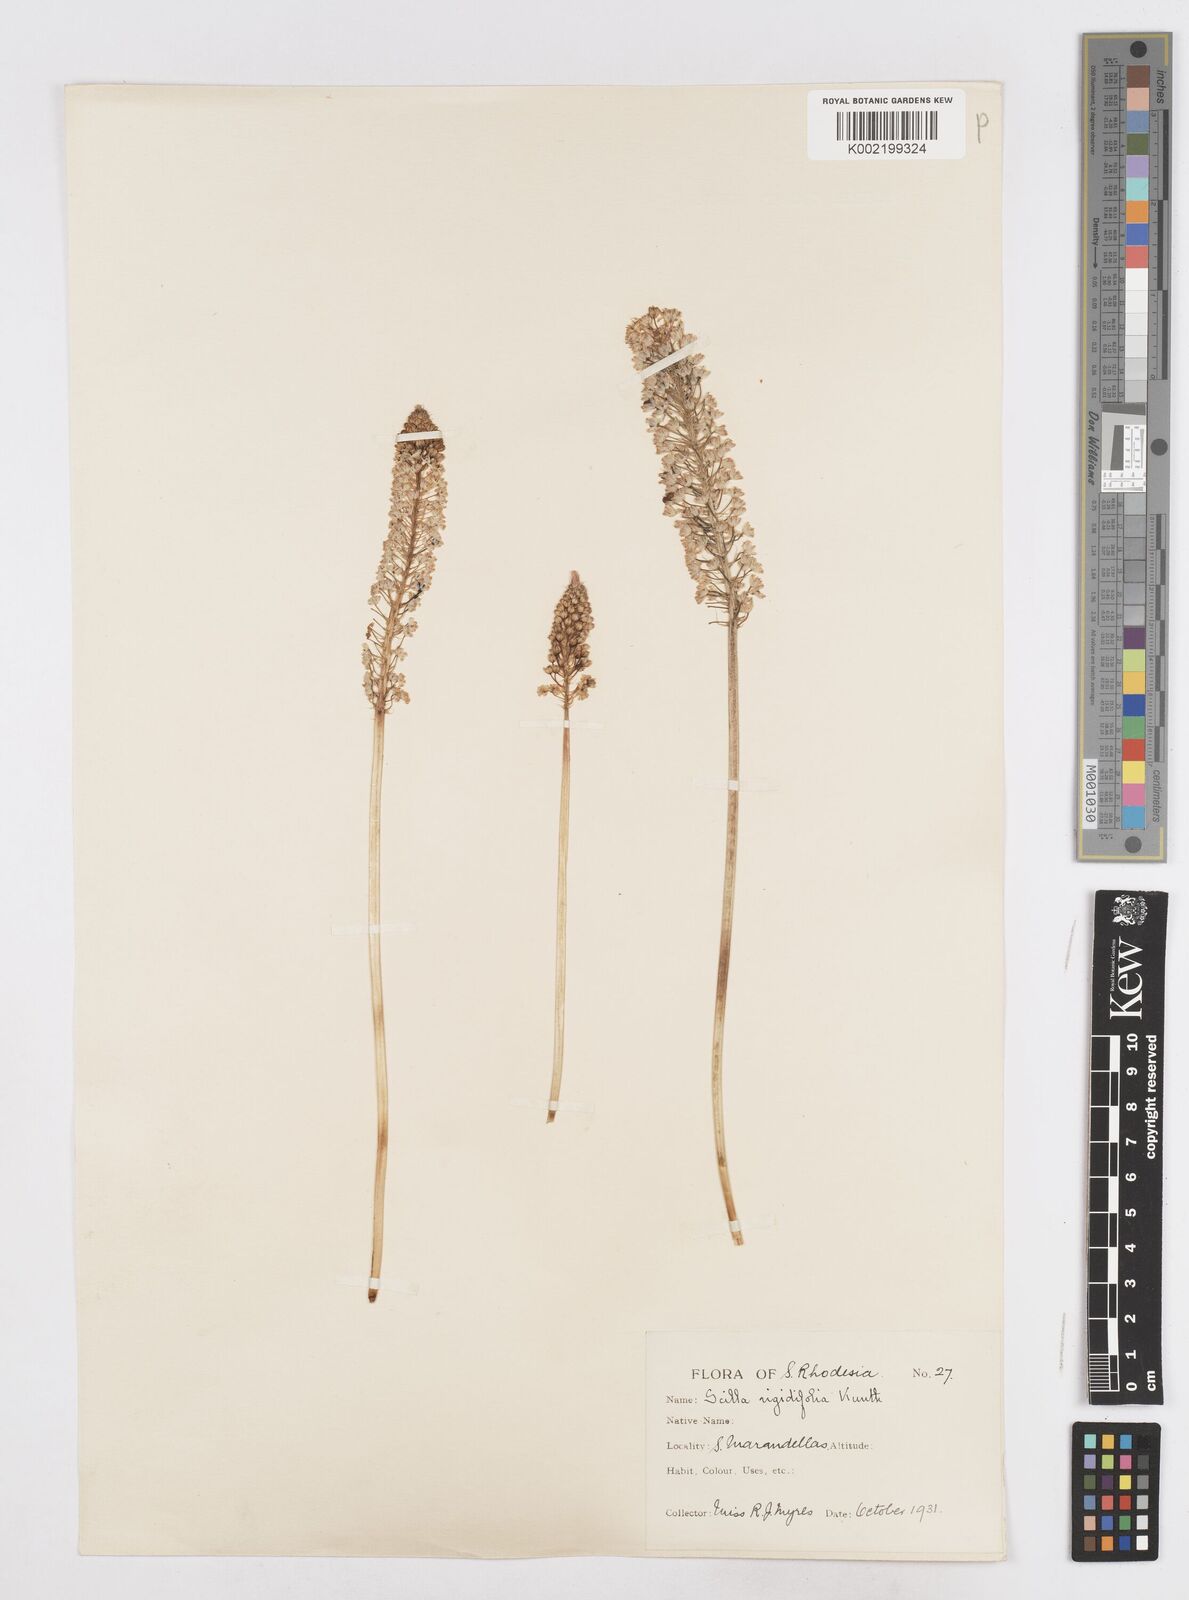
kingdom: Plantae
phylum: Tracheophyta
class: Liliopsida
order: Asparagales
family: Asparagaceae
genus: Schizocarphus
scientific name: Schizocarphus nervosus
